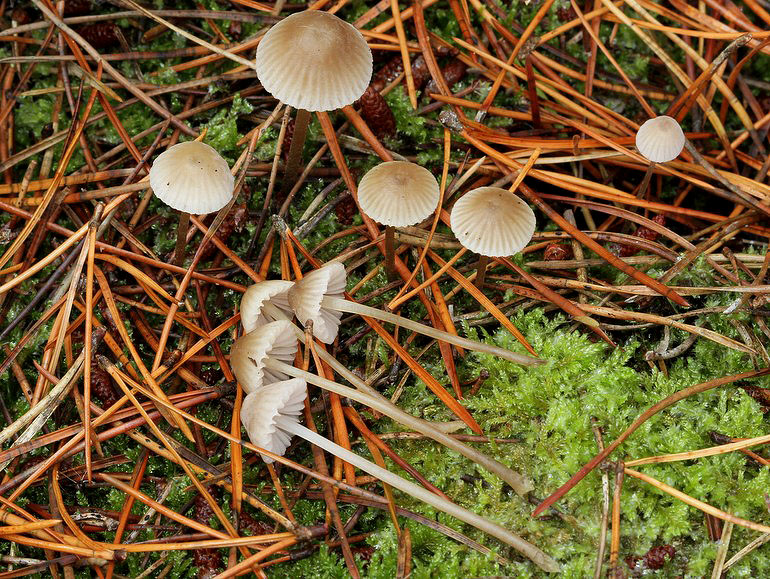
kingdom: Fungi
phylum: Basidiomycota
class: Agaricomycetes
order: Agaricales
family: Mycenaceae
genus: Mycena
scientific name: Mycena filopes
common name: jod-huesvamp
